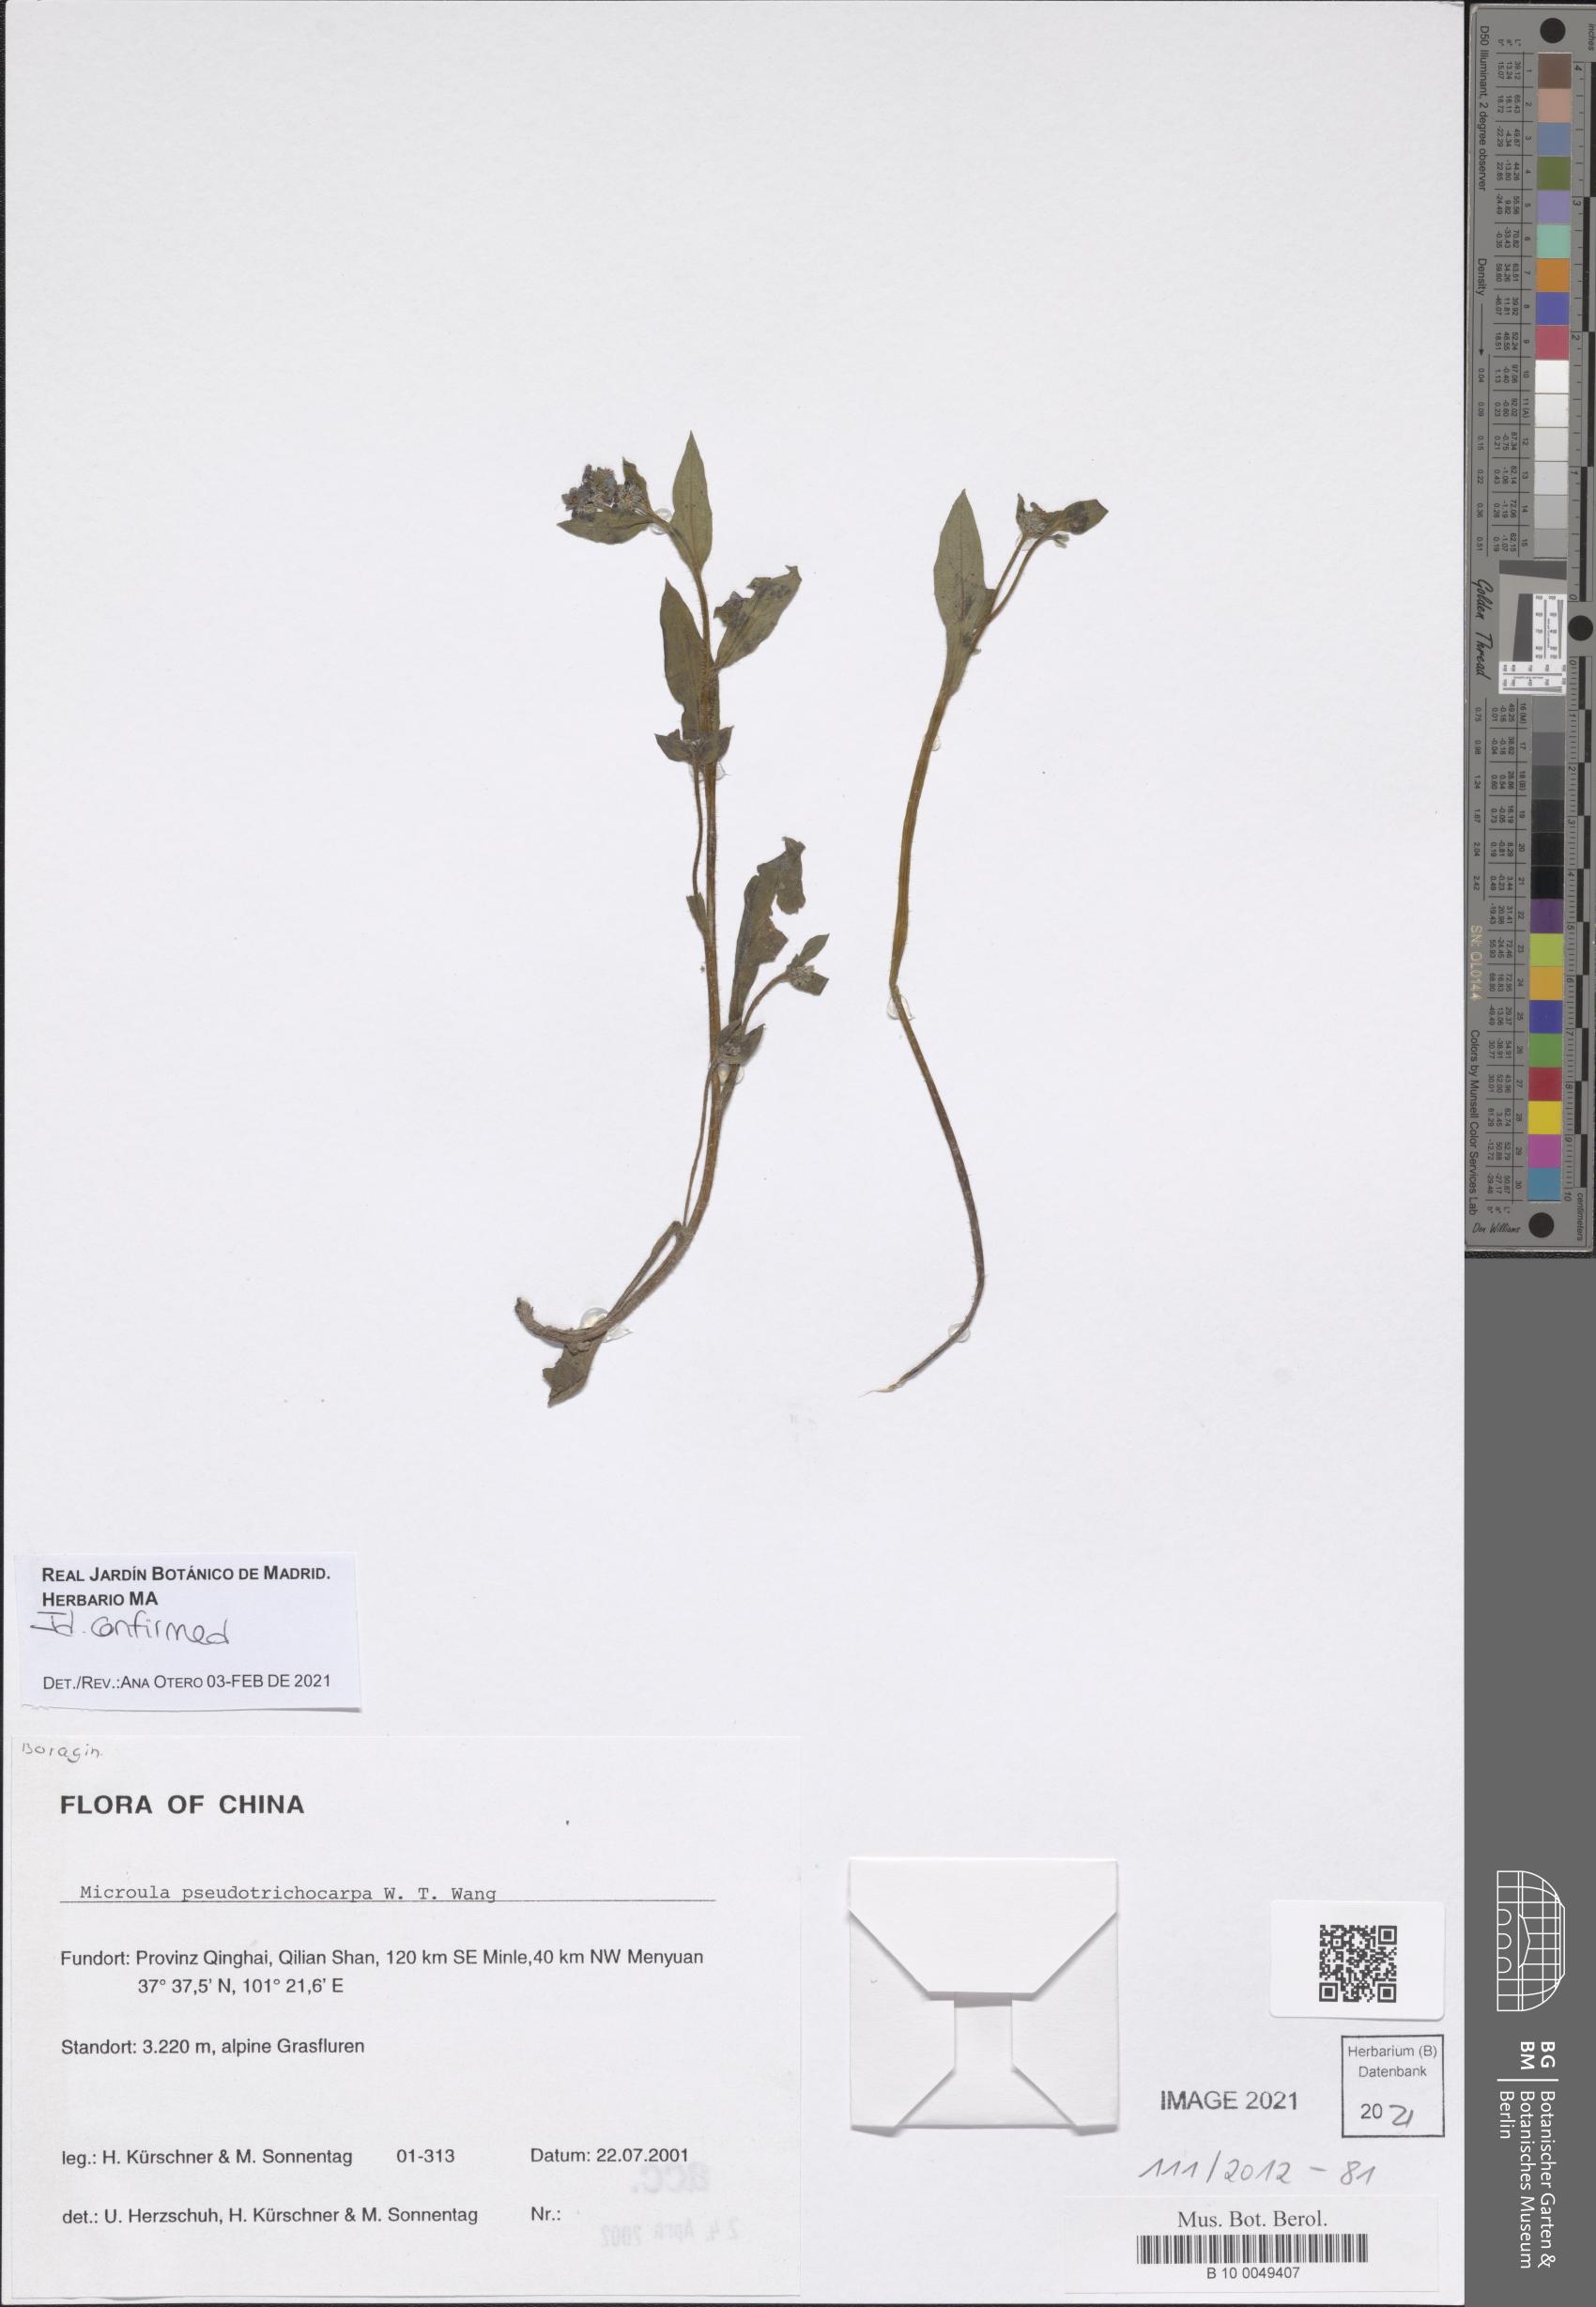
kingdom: Plantae
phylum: Tracheophyta
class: Magnoliopsida
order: Boraginales
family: Boraginaceae
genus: Microula
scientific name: Microula pseudotrichocarpa
